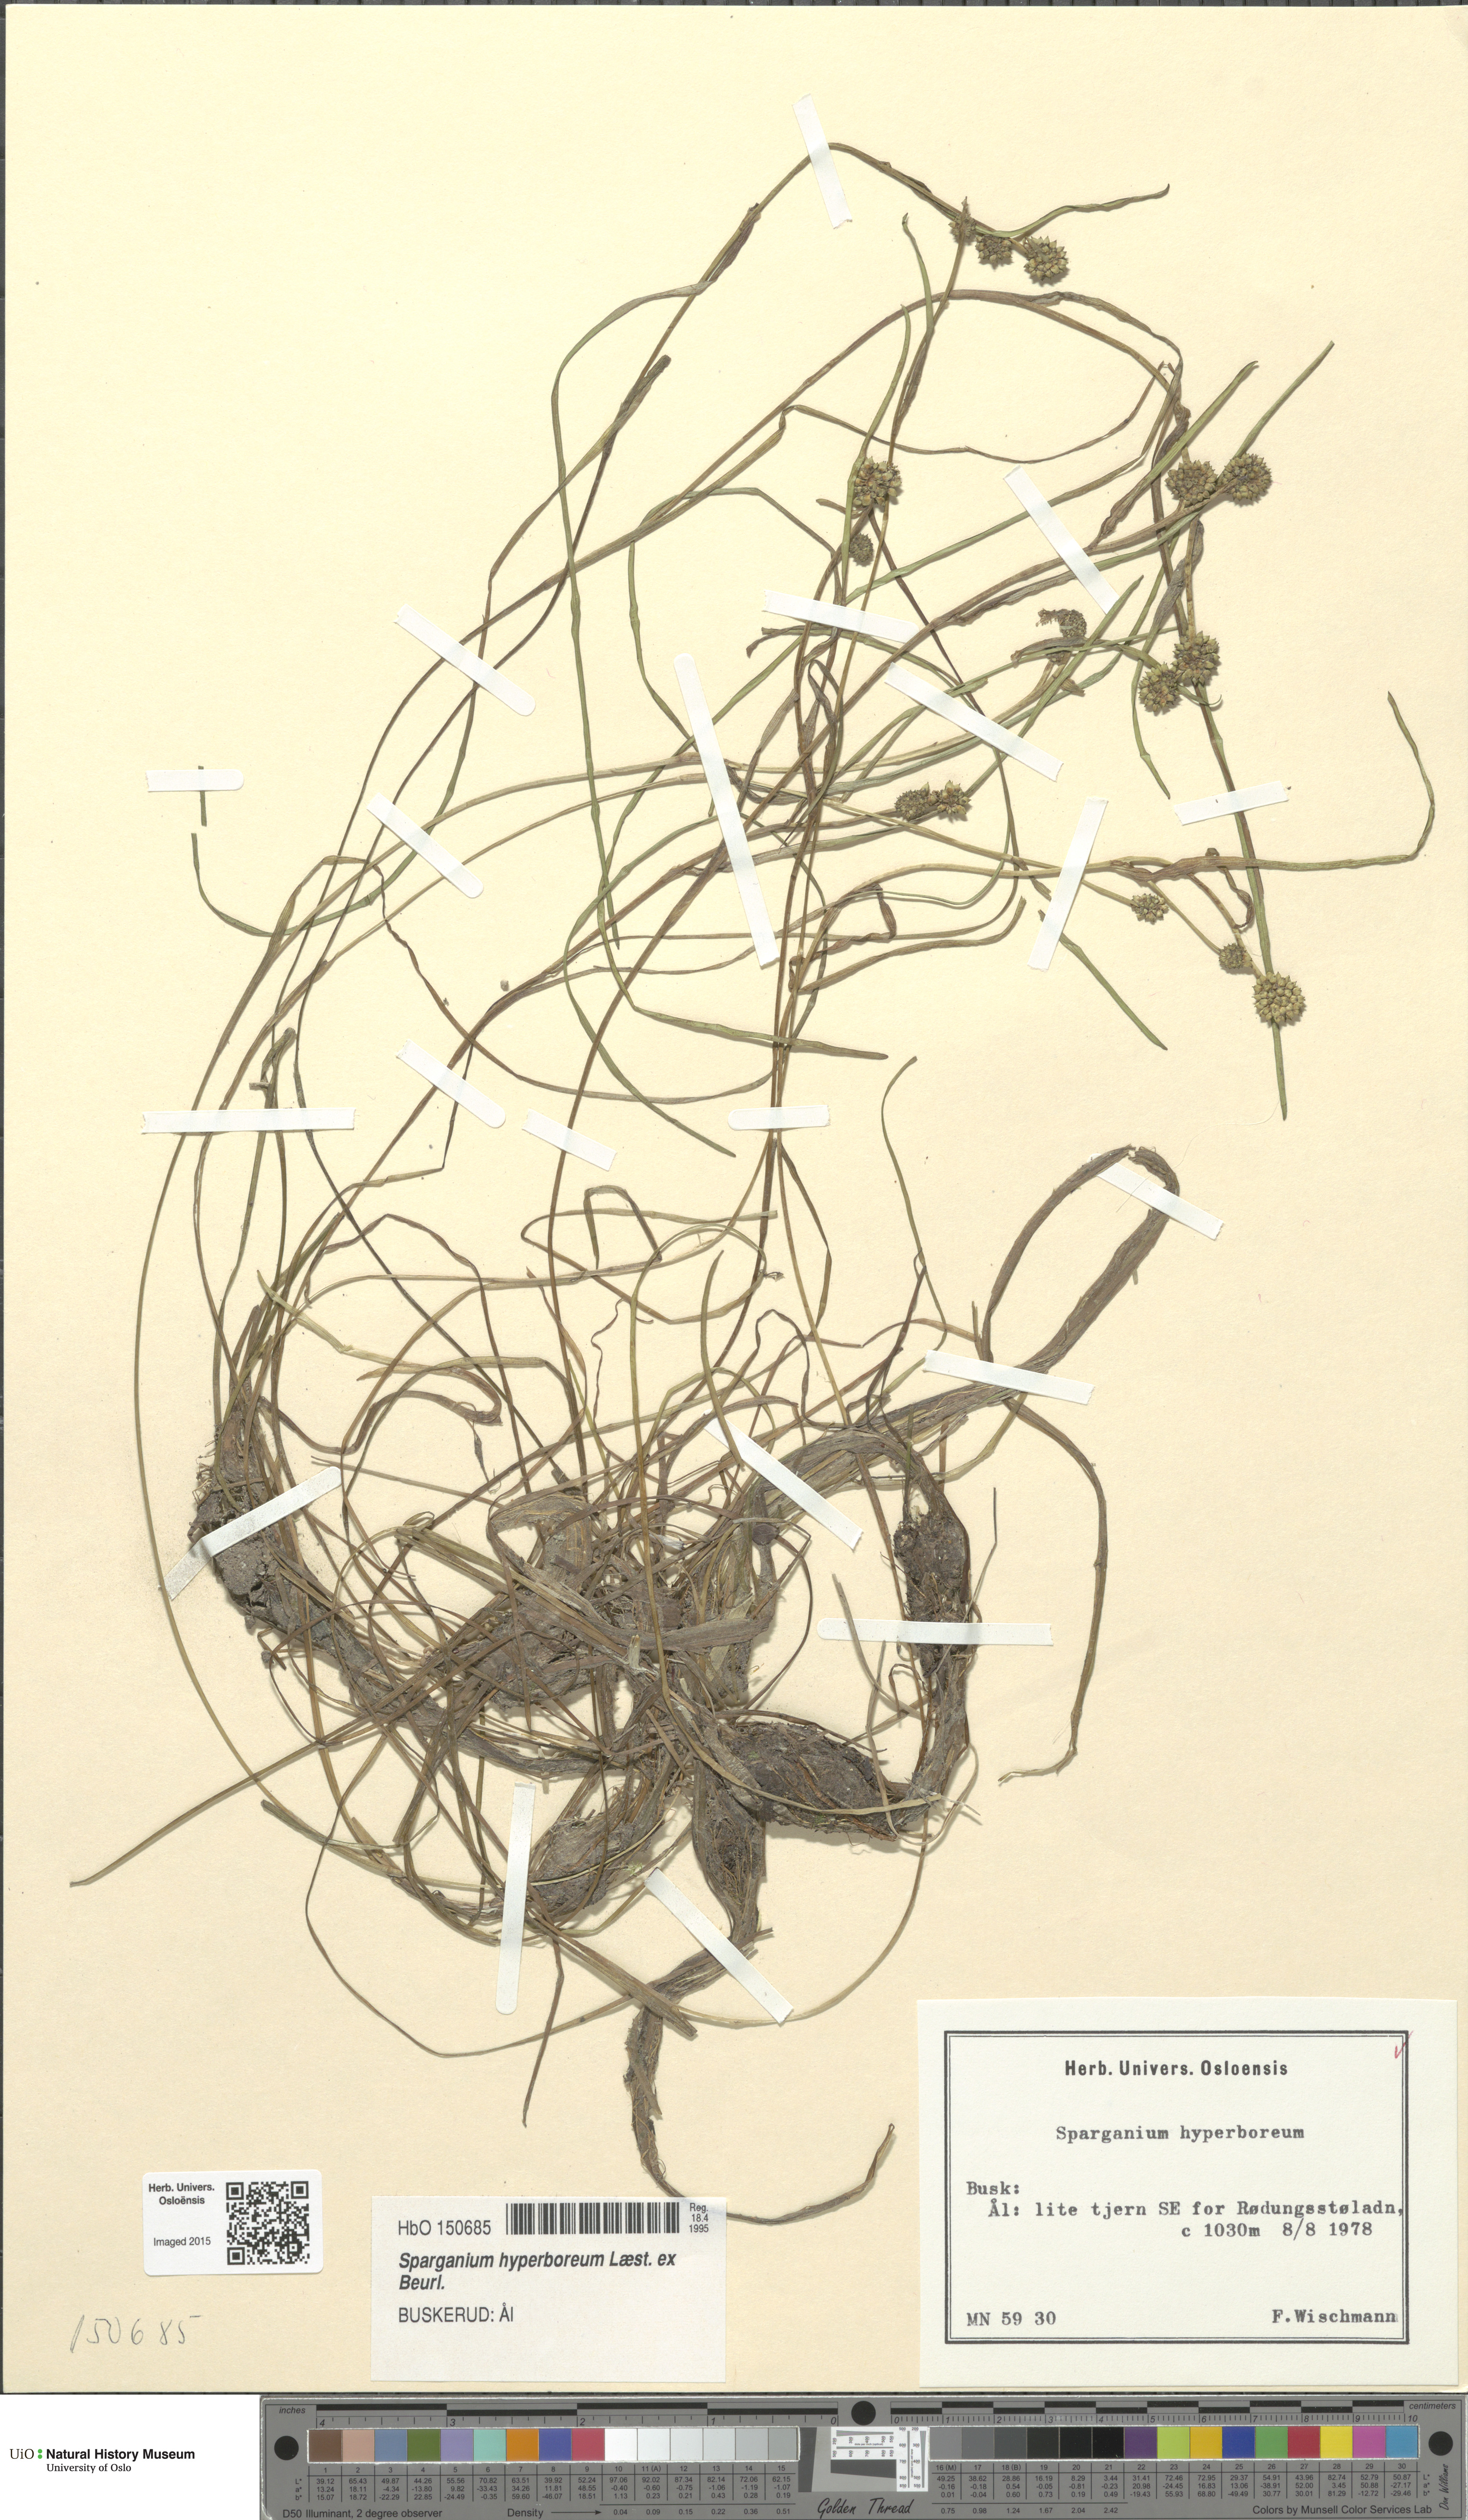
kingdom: Plantae
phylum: Tracheophyta
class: Liliopsida
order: Poales
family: Typhaceae
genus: Sparganium
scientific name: Sparganium hyperboreum
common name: Arctic burreed
